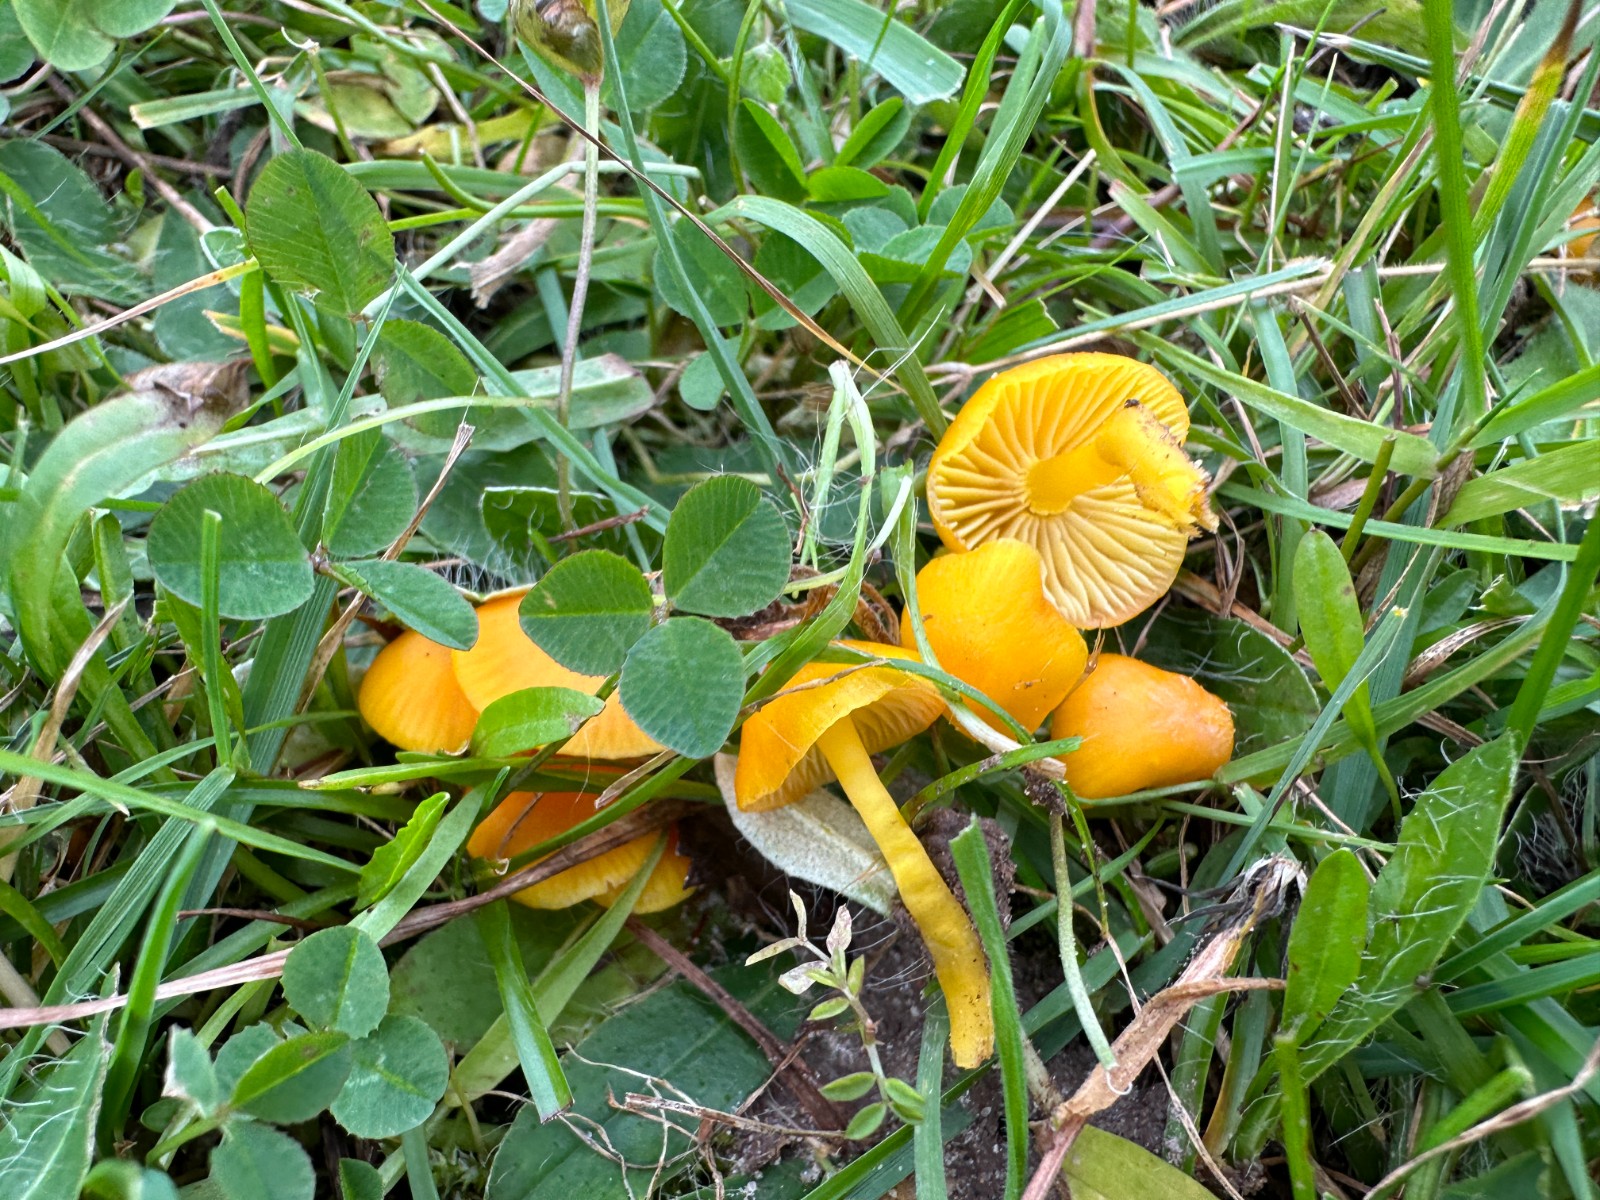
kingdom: Fungi
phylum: Basidiomycota
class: Agaricomycetes
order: Agaricales
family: Hygrophoraceae
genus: Hygrocybe
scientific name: Hygrocybe ceracea
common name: voksgul vokshat
